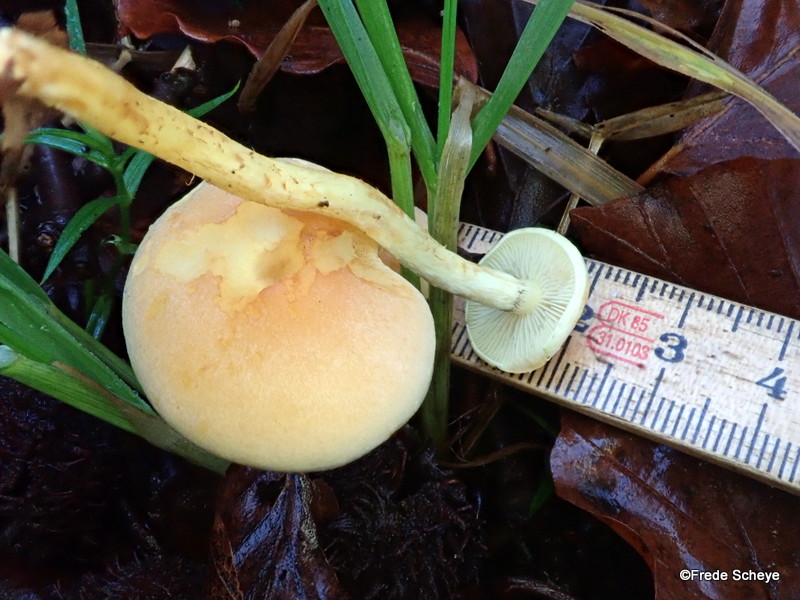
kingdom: Fungi
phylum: Basidiomycota
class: Agaricomycetes
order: Agaricales
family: Strophariaceae
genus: Hypholoma
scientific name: Hypholoma fasciculare
